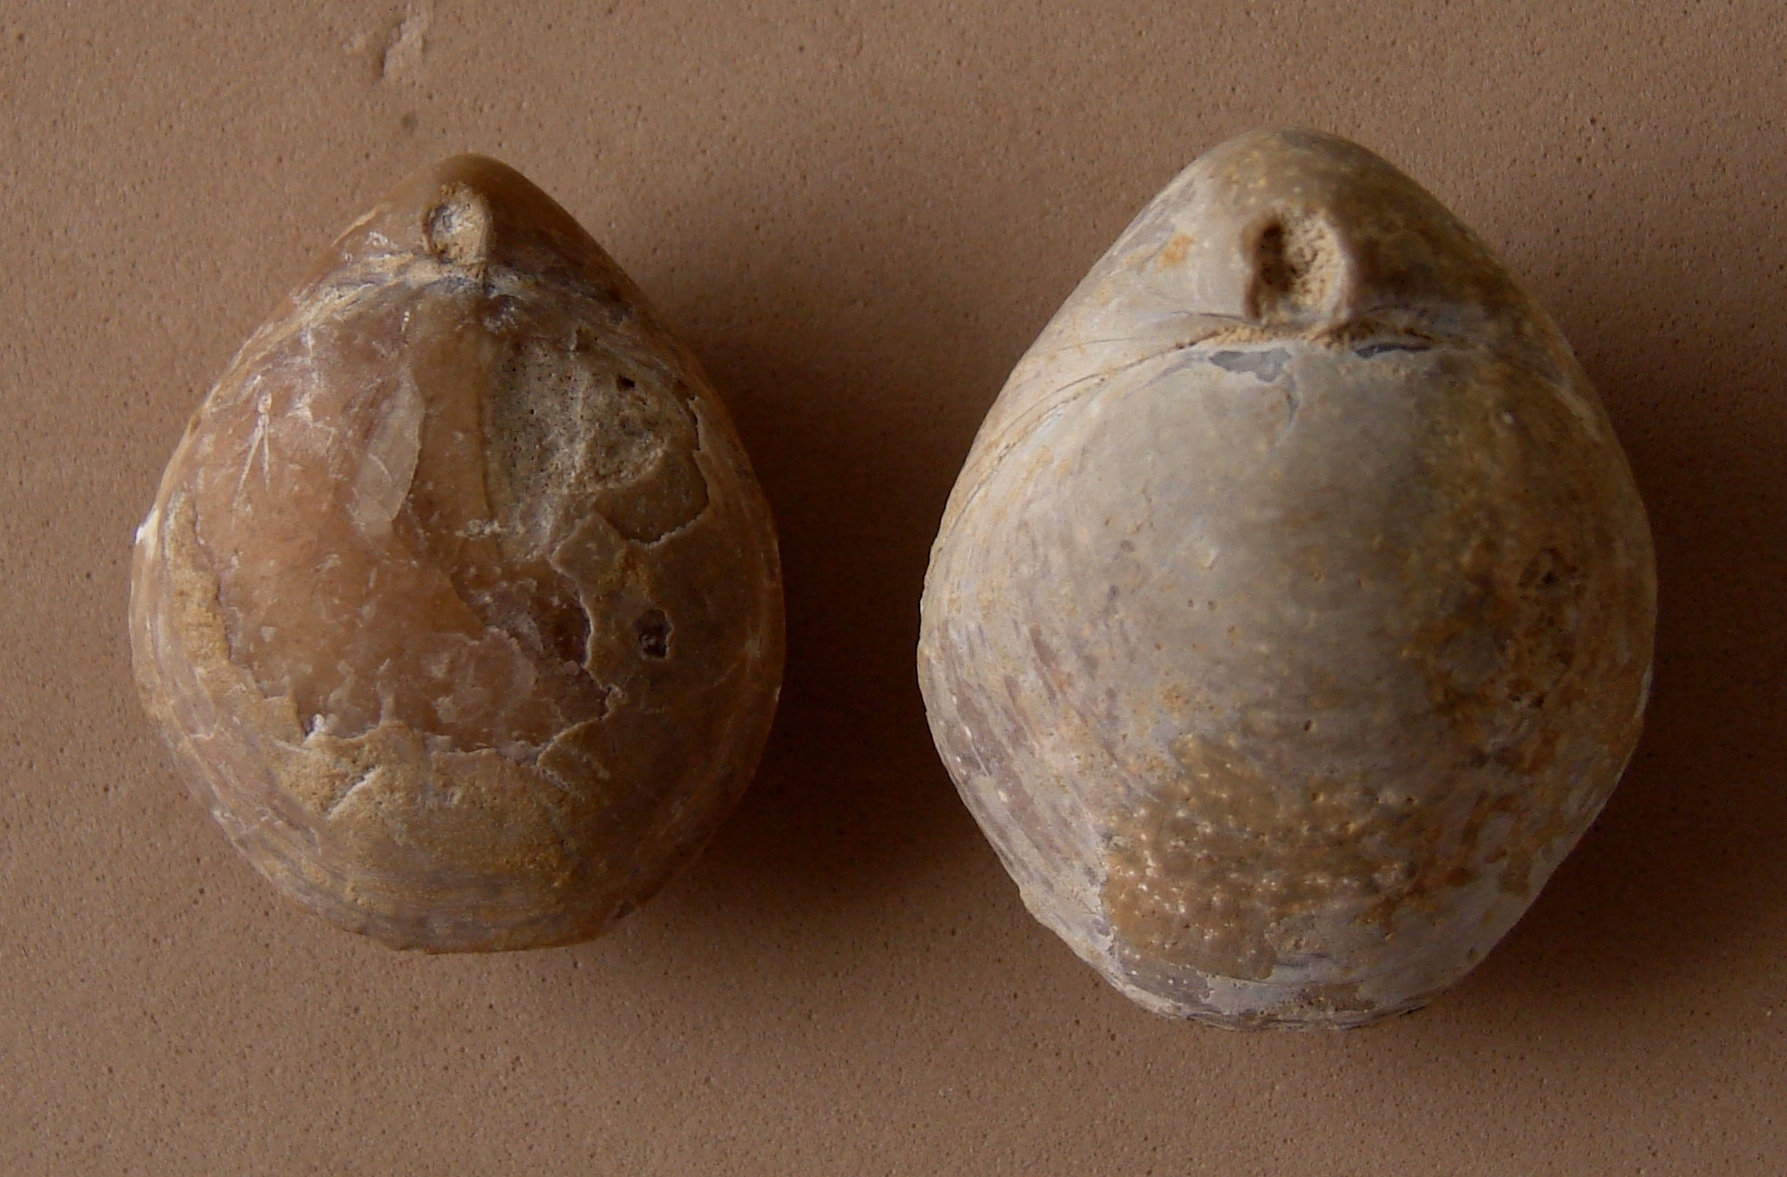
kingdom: Animalia
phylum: Brachiopoda
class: Rhynchonellata
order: Terebratulida
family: Hegathyridae
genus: Monsardithyris
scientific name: Monsardithyris Terebratula ventricosa
